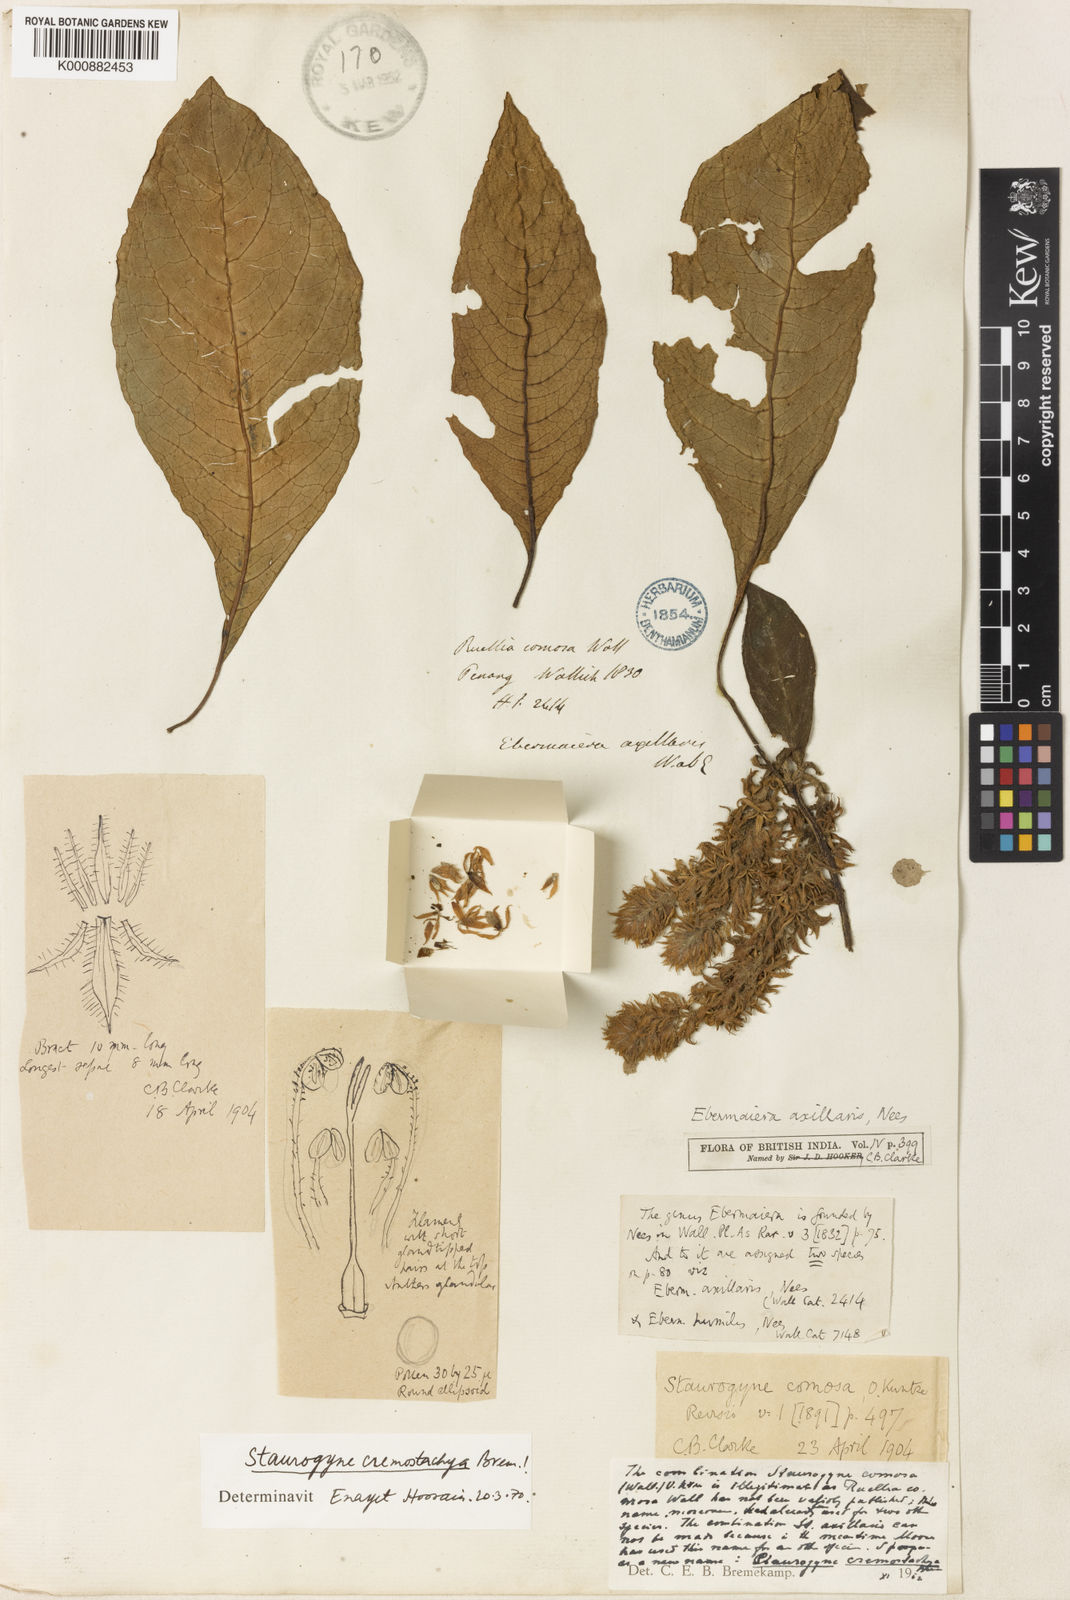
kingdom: Plantae
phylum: Tracheophyta
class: Magnoliopsida
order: Lamiales
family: Acanthaceae
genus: Staurogyne
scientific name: Staurogyne comosa
